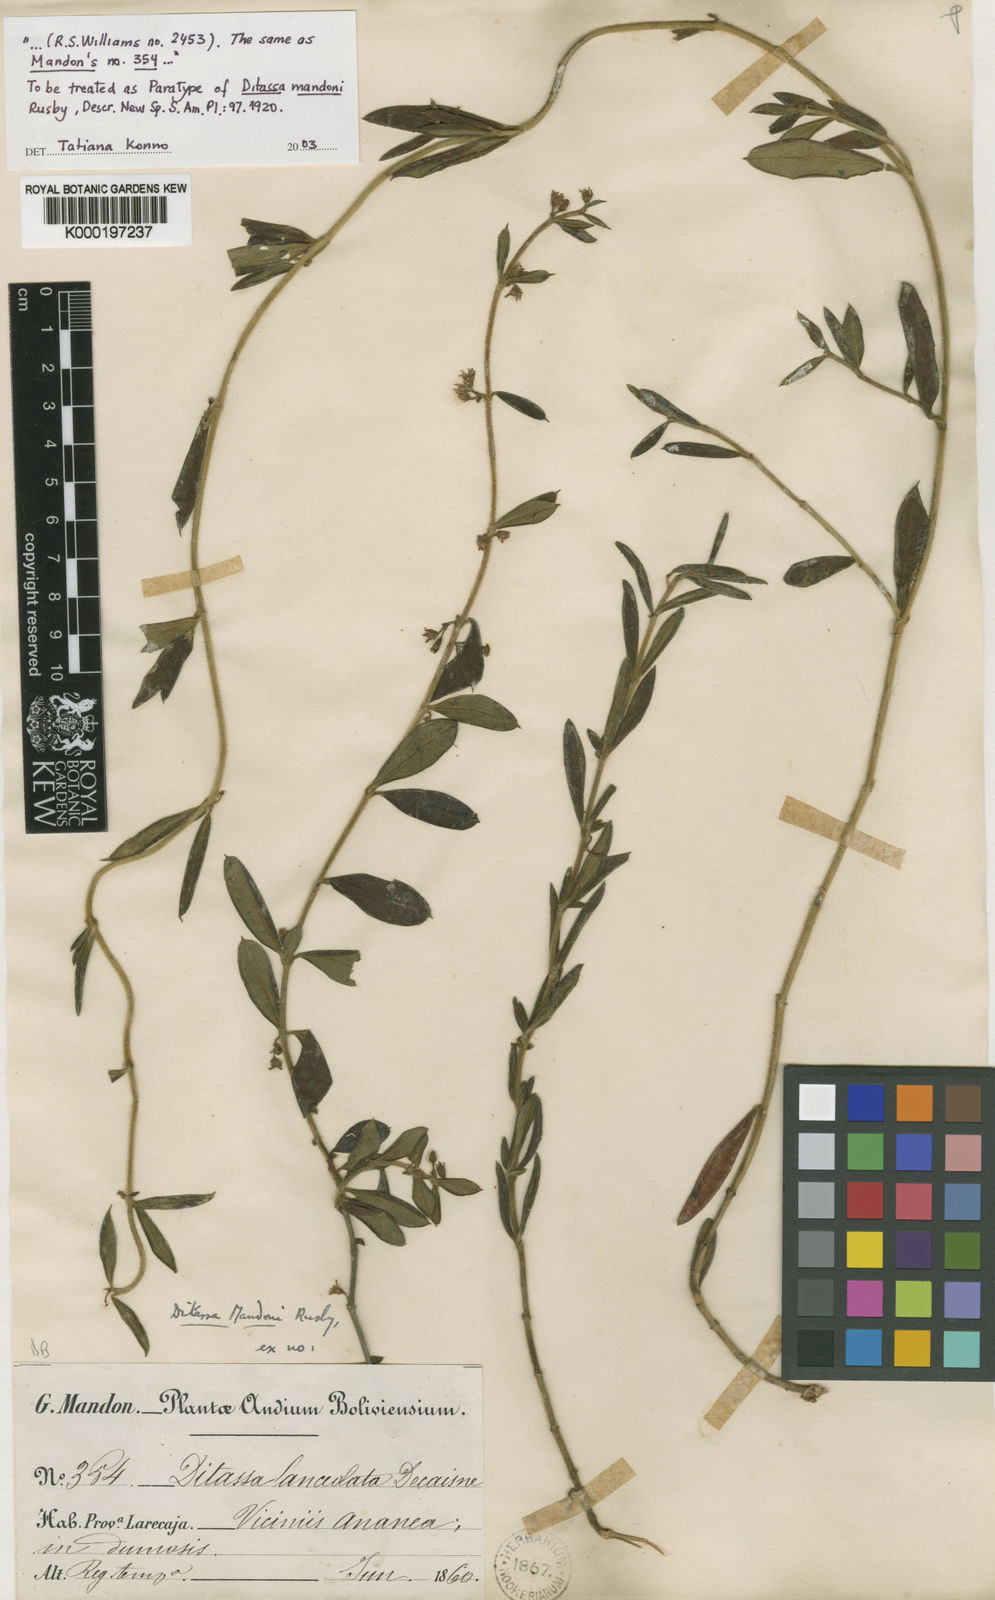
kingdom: Plantae
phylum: Tracheophyta
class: Magnoliopsida
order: Gentianales
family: Apocynaceae
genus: Ditassa
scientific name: Ditassa mandonii
